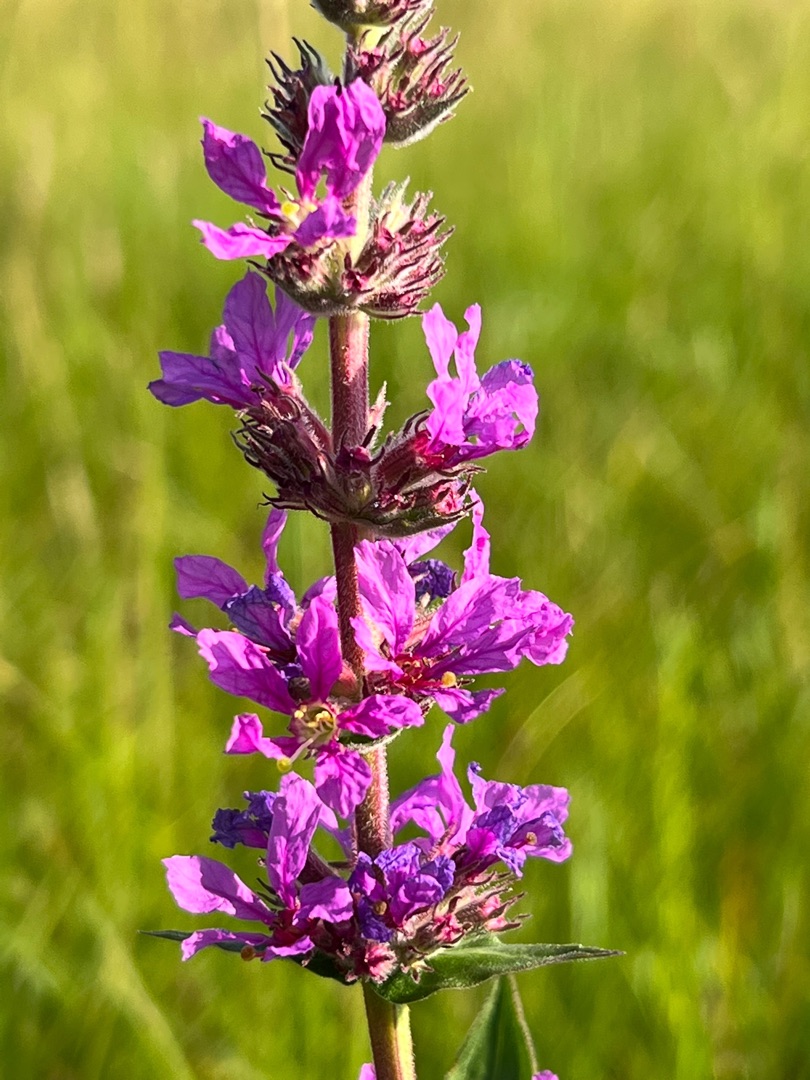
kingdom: Plantae
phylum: Tracheophyta
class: Magnoliopsida
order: Myrtales
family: Lythraceae
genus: Lythrum
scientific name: Lythrum salicaria
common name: Kattehale
